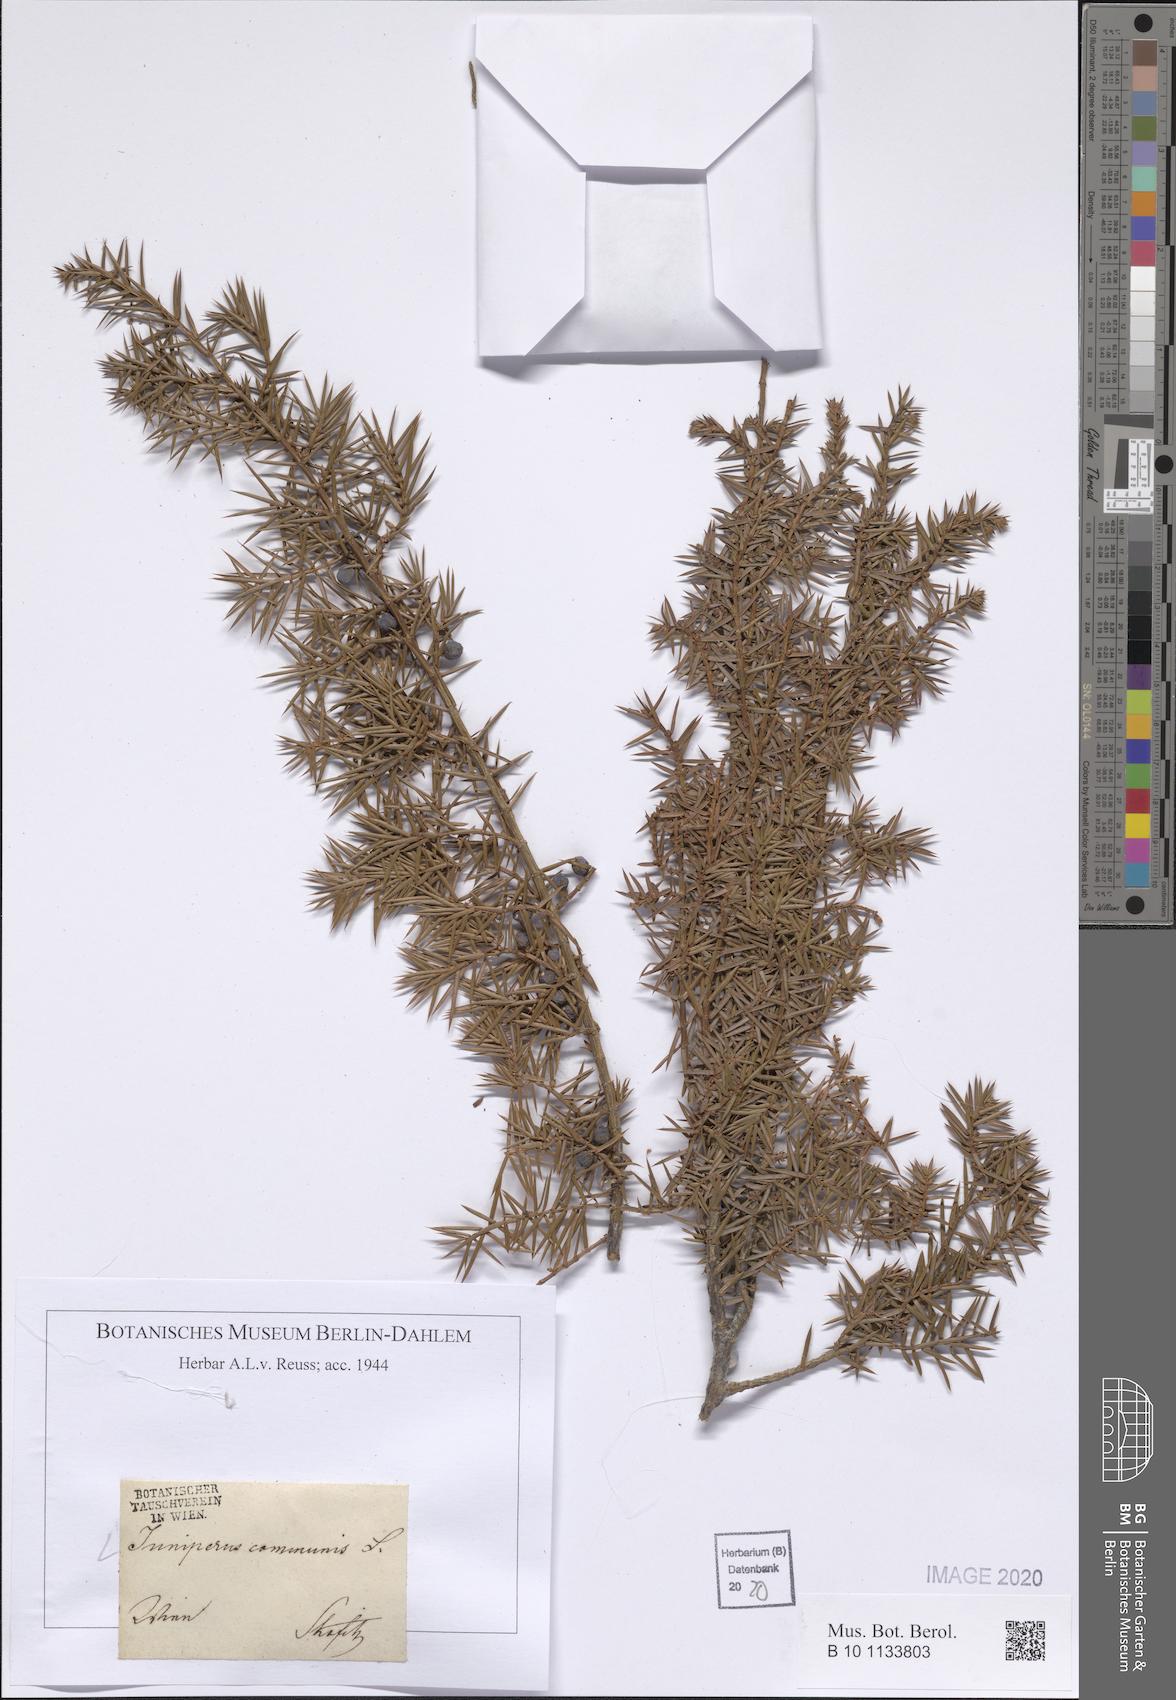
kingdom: Plantae
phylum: Tracheophyta
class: Pinopsida
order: Pinales
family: Cupressaceae
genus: Juniperus
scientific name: Juniperus communis
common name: Common juniper
